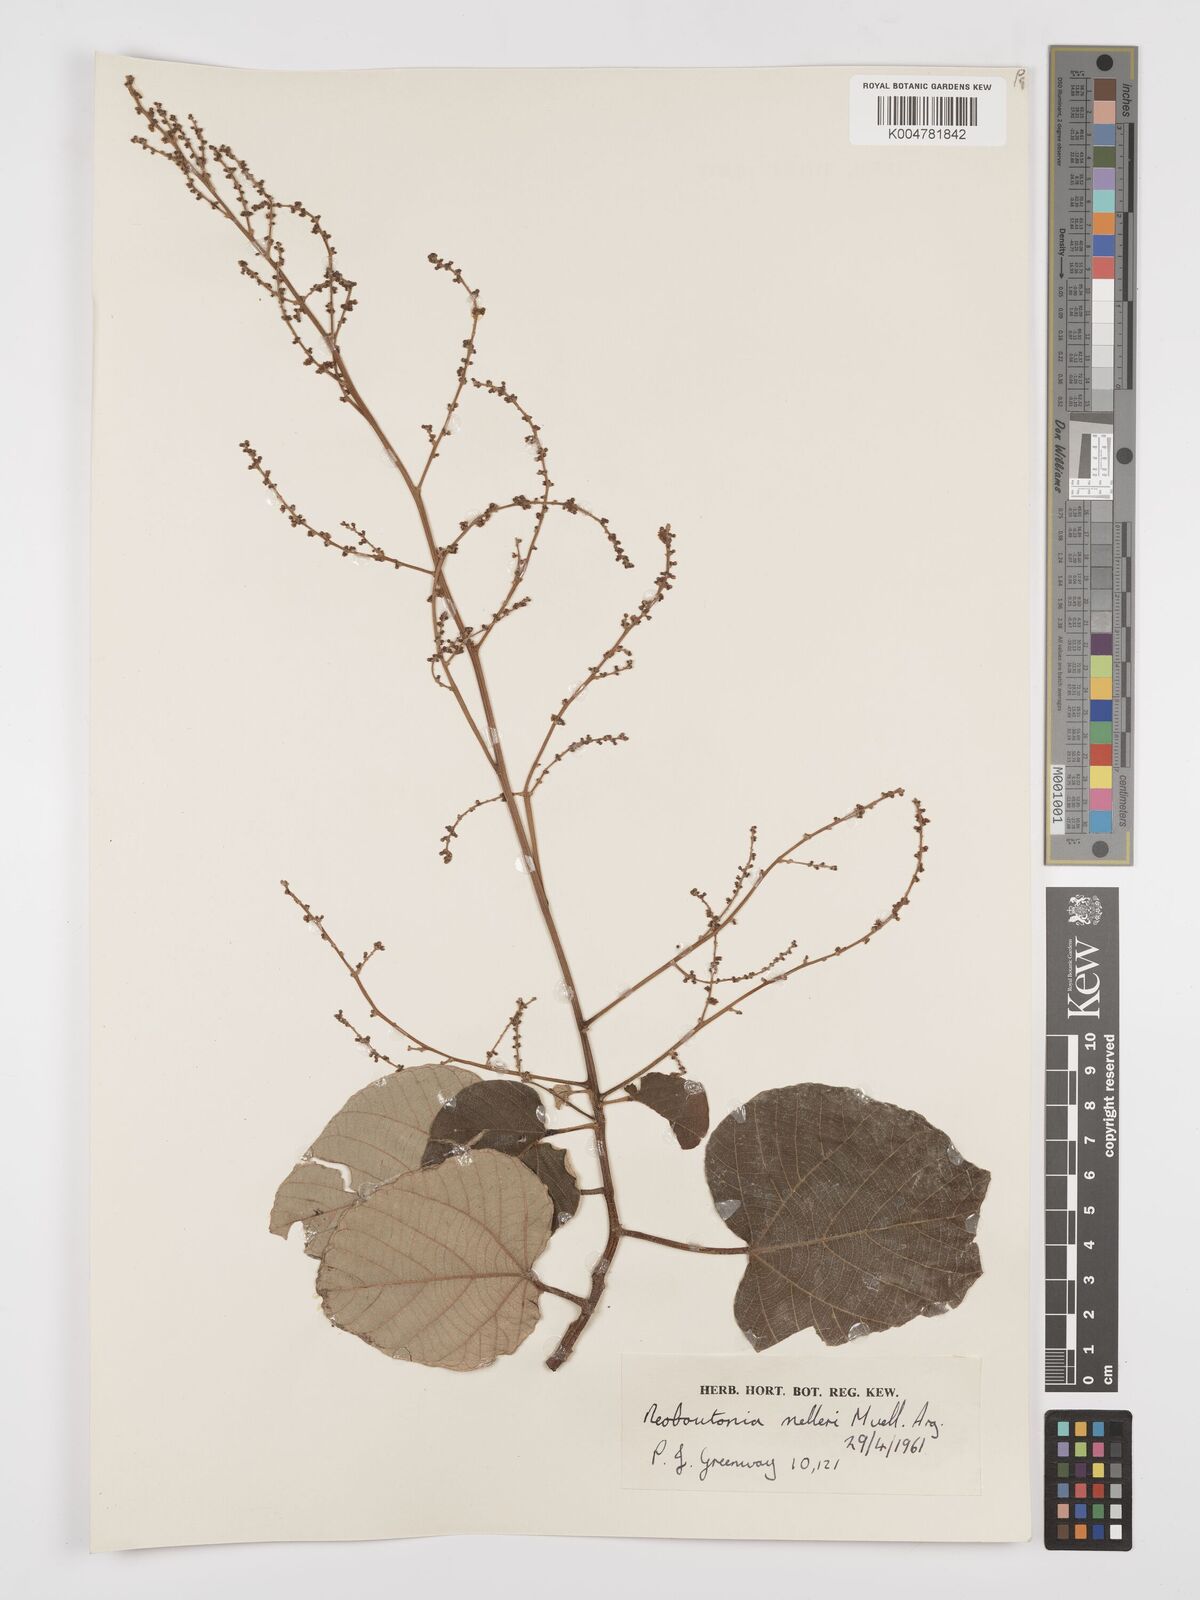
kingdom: Plantae
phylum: Tracheophyta
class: Magnoliopsida
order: Malpighiales
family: Euphorbiaceae
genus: Neoboutonia
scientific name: Neoboutonia melleri
